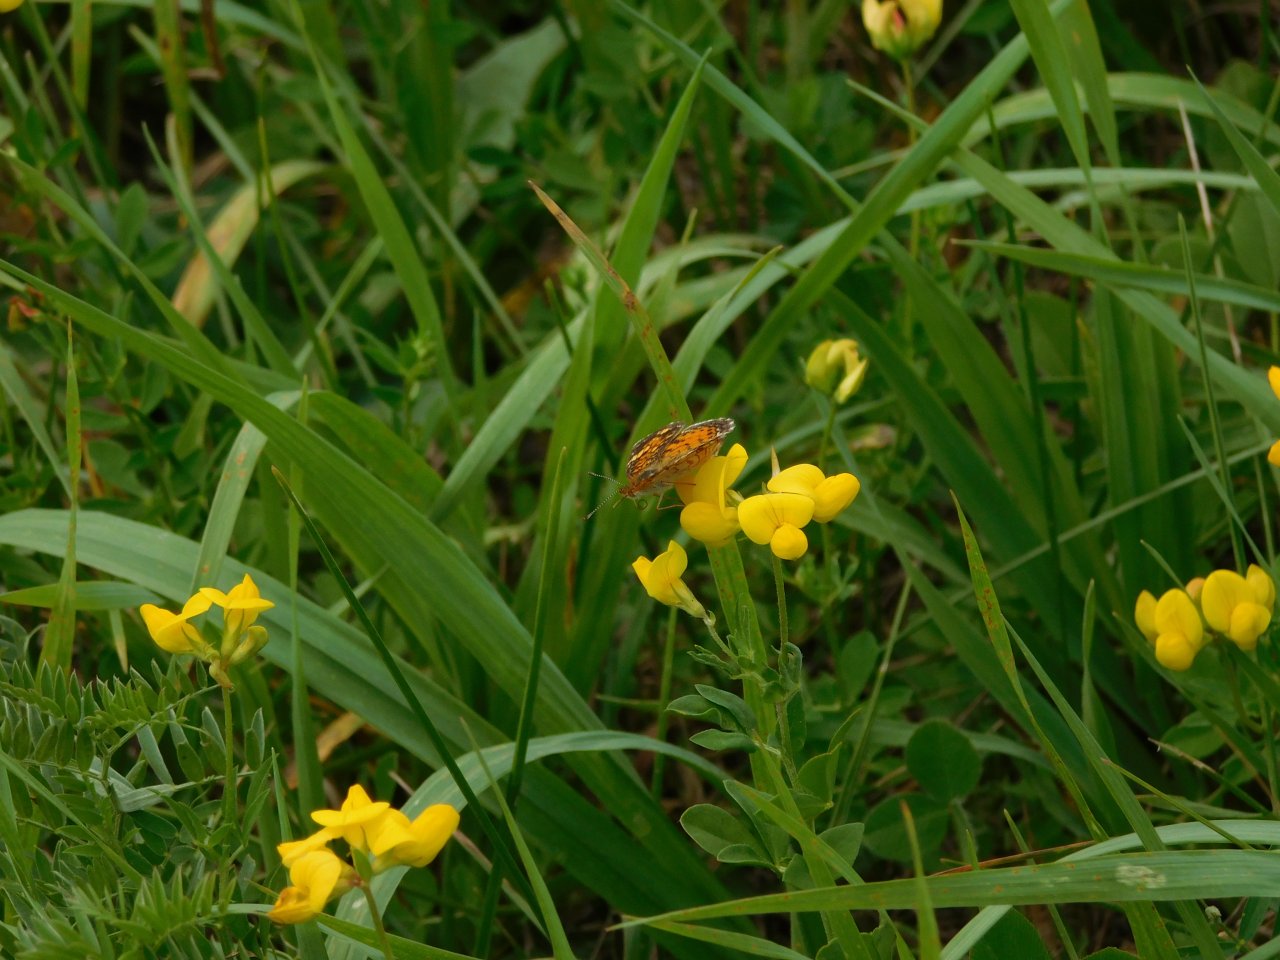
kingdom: Animalia
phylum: Arthropoda
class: Insecta
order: Lepidoptera
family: Nymphalidae
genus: Phyciodes
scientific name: Phyciodes tharos
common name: Northern Crescent
